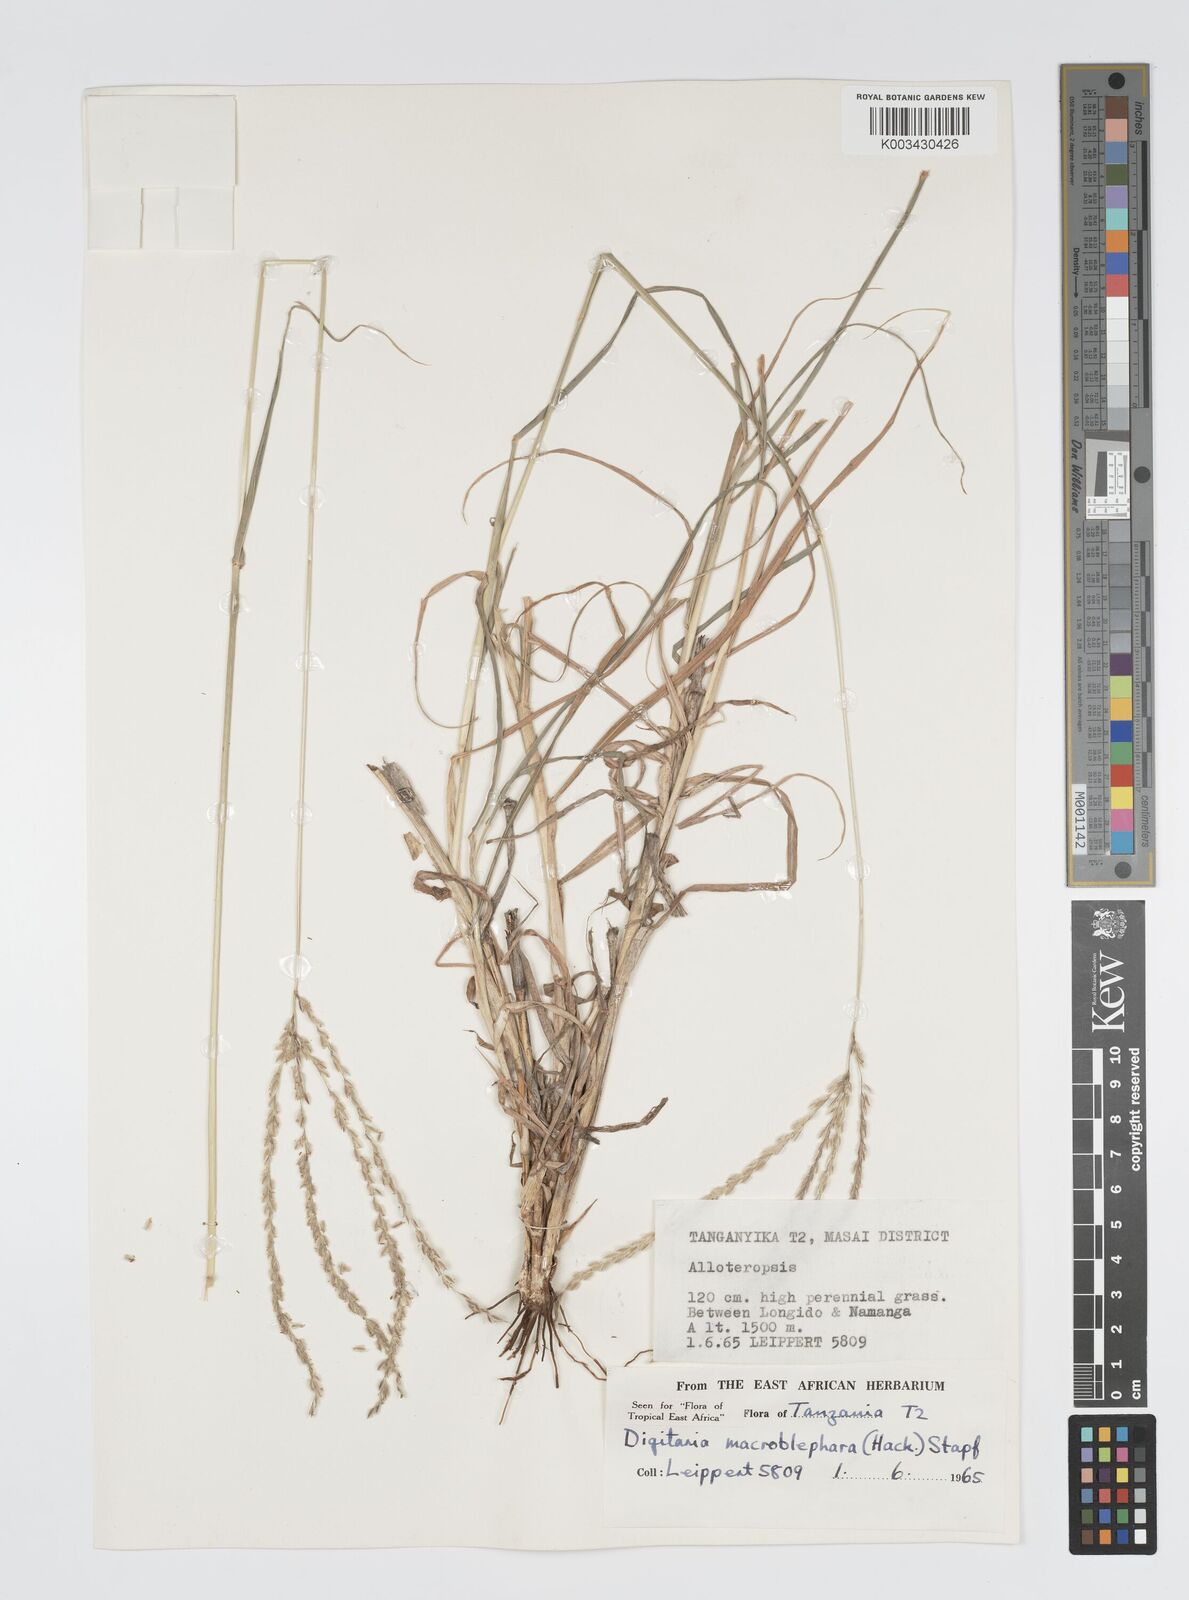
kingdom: Plantae
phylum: Tracheophyta
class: Liliopsida
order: Poales
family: Poaceae
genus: Digitaria
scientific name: Digitaria macroblephara
